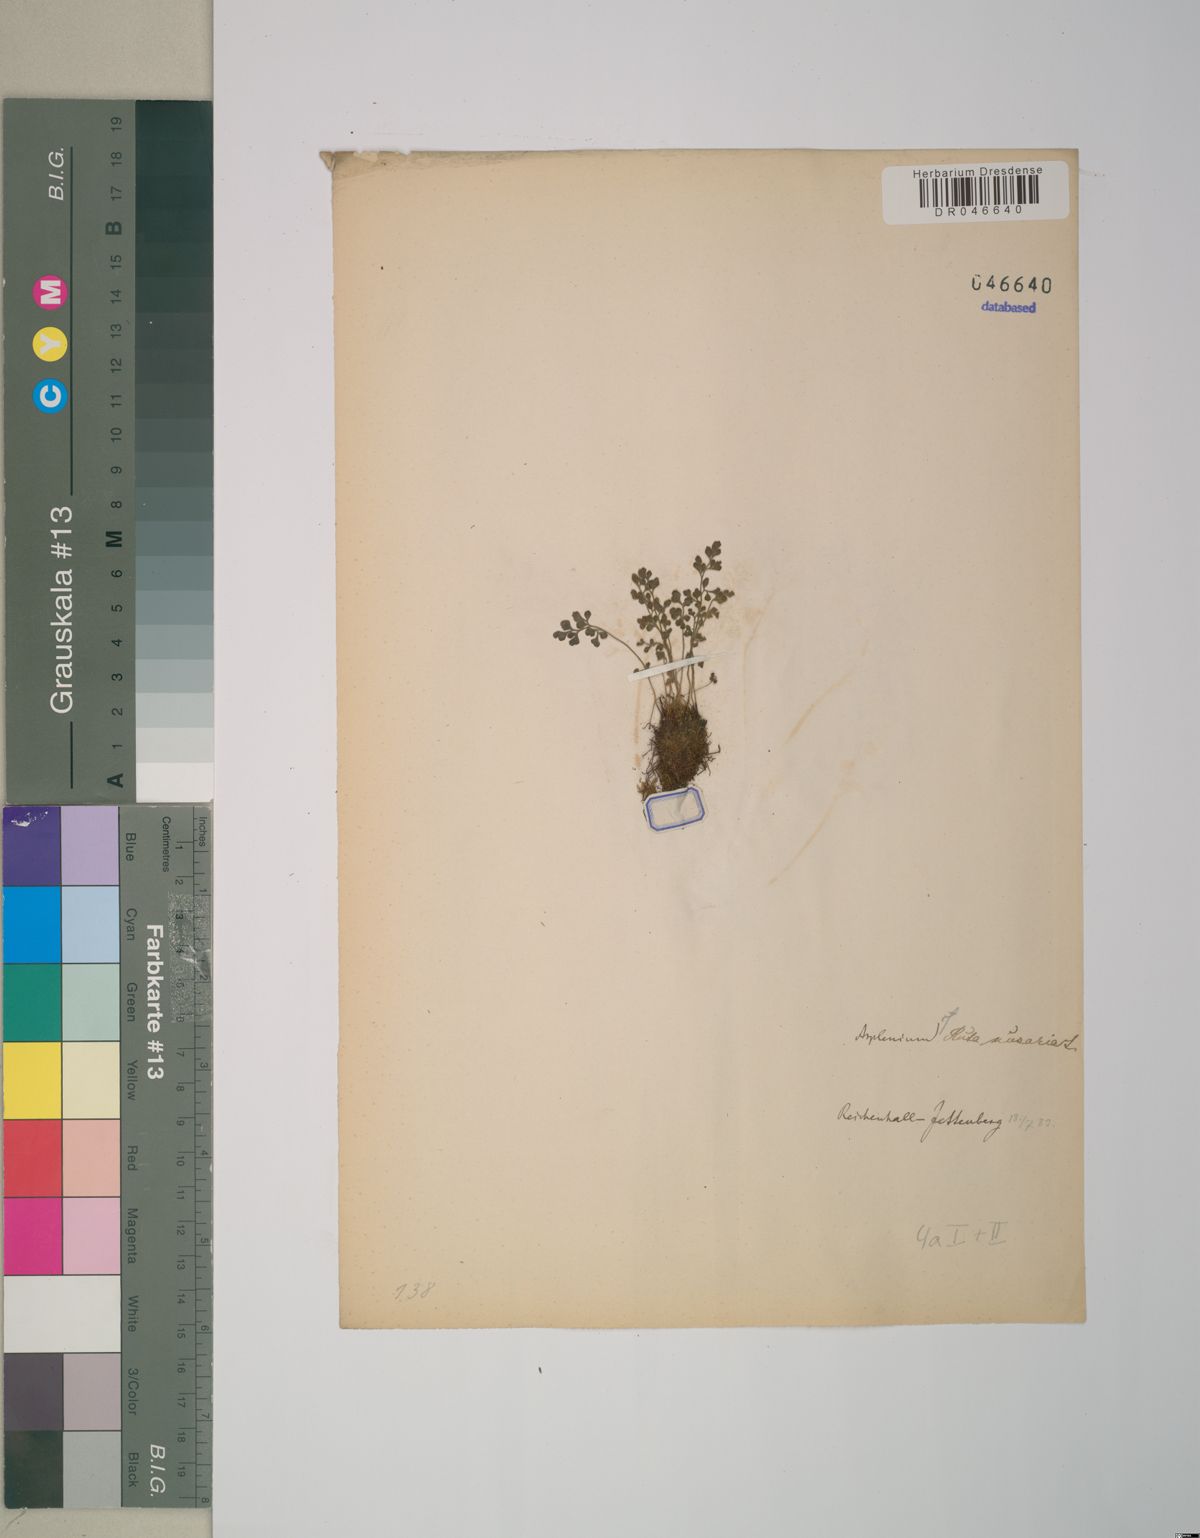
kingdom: Plantae
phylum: Tracheophyta
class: Polypodiopsida
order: Polypodiales
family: Aspleniaceae
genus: Asplenium
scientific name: Asplenium ruta-muraria
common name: Wall-rue
